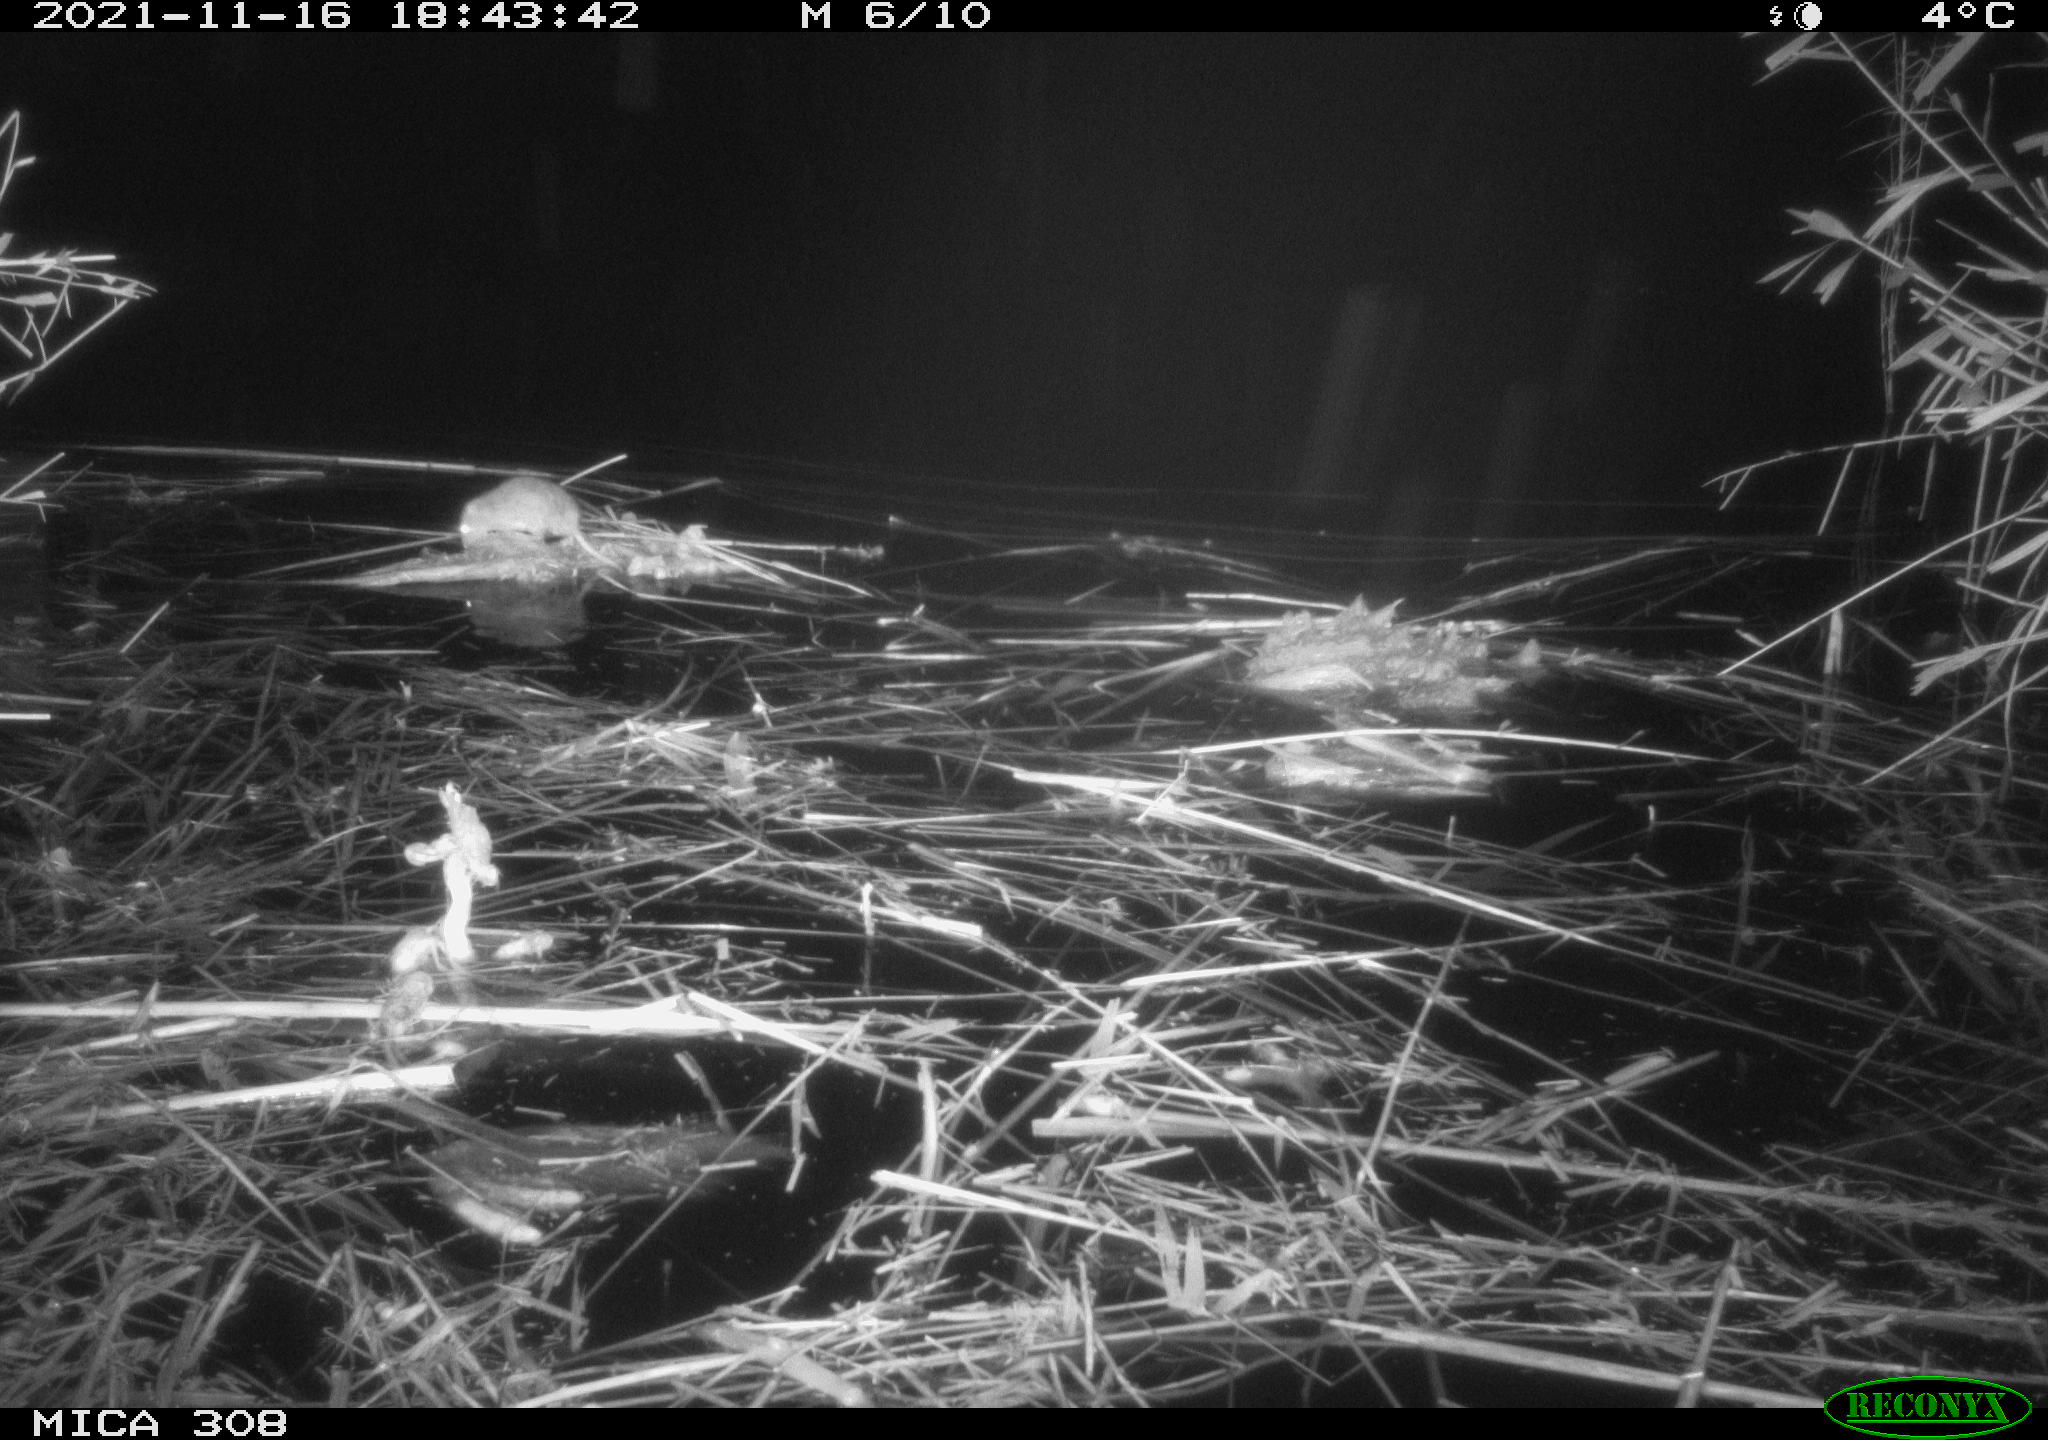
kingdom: Animalia
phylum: Chordata
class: Mammalia
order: Rodentia
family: Muridae
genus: Rattus
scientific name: Rattus norvegicus
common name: Brown rat
